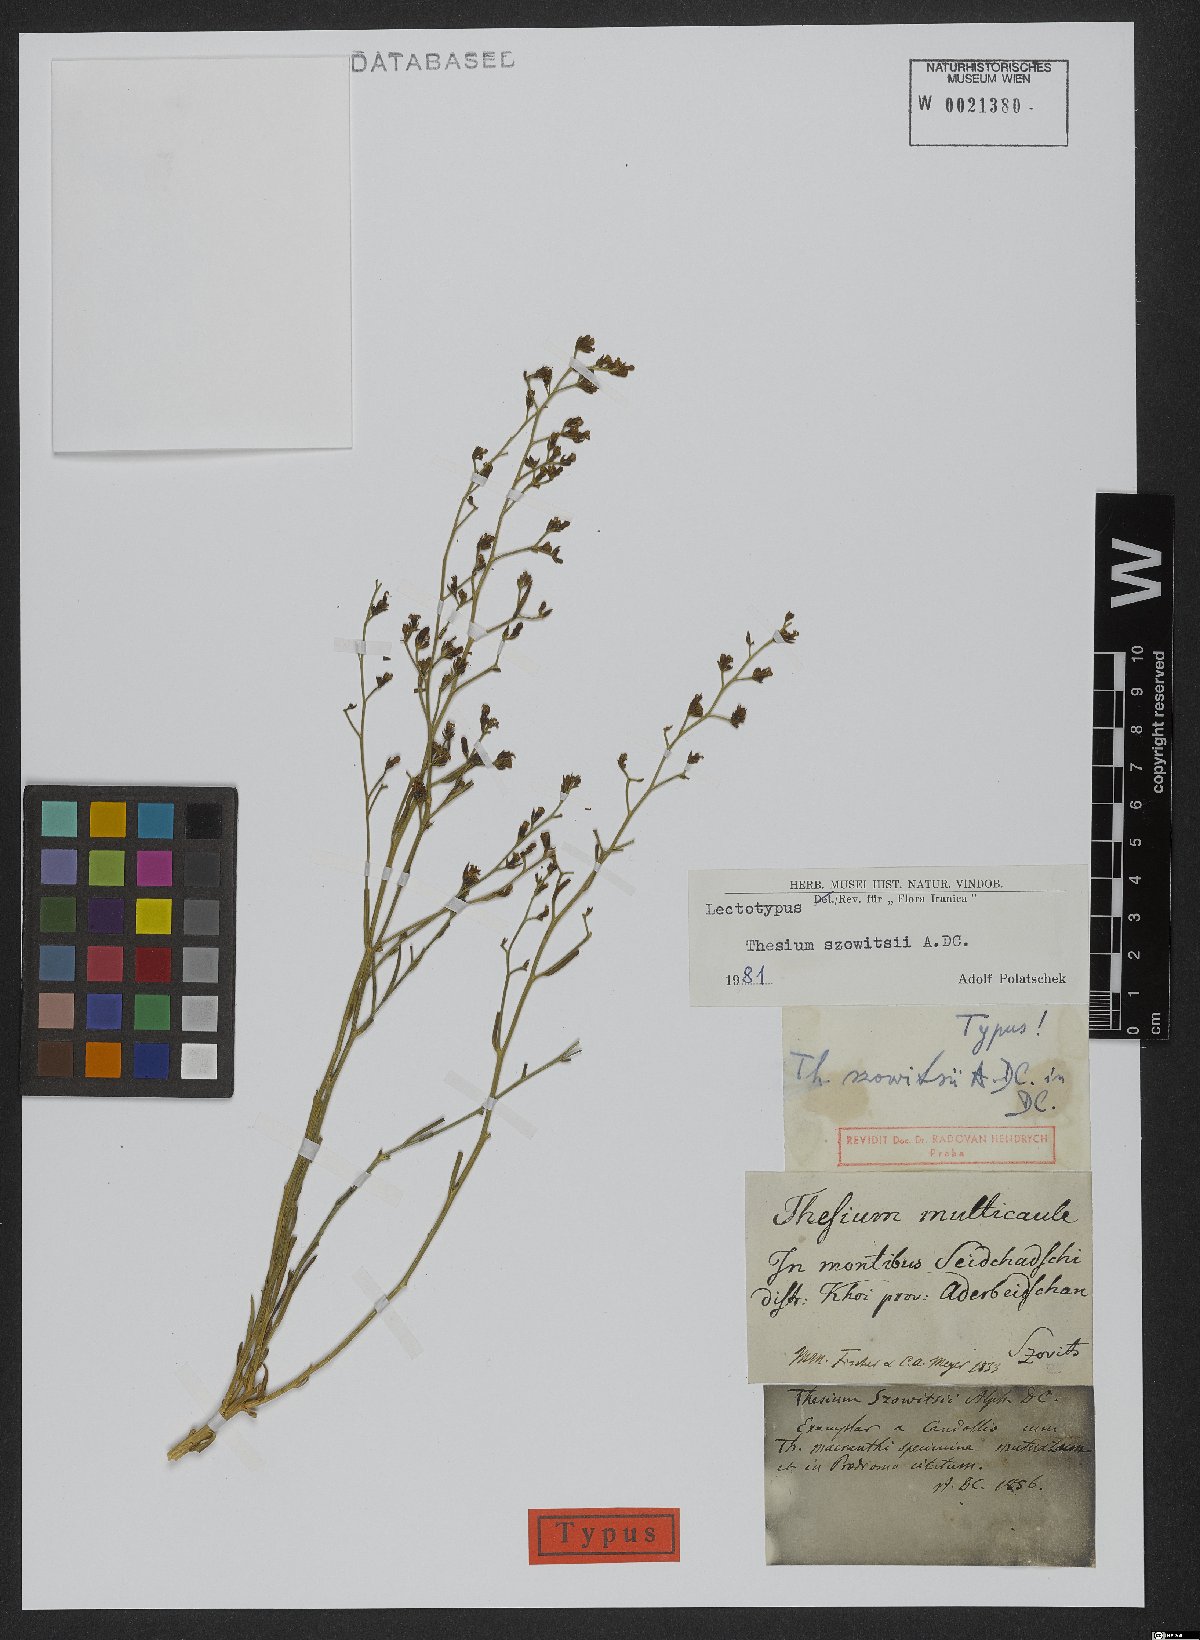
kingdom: Plantae
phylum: Tracheophyta
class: Magnoliopsida
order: Santalales
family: Thesiaceae
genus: Thesium
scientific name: Thesium szowitsii
